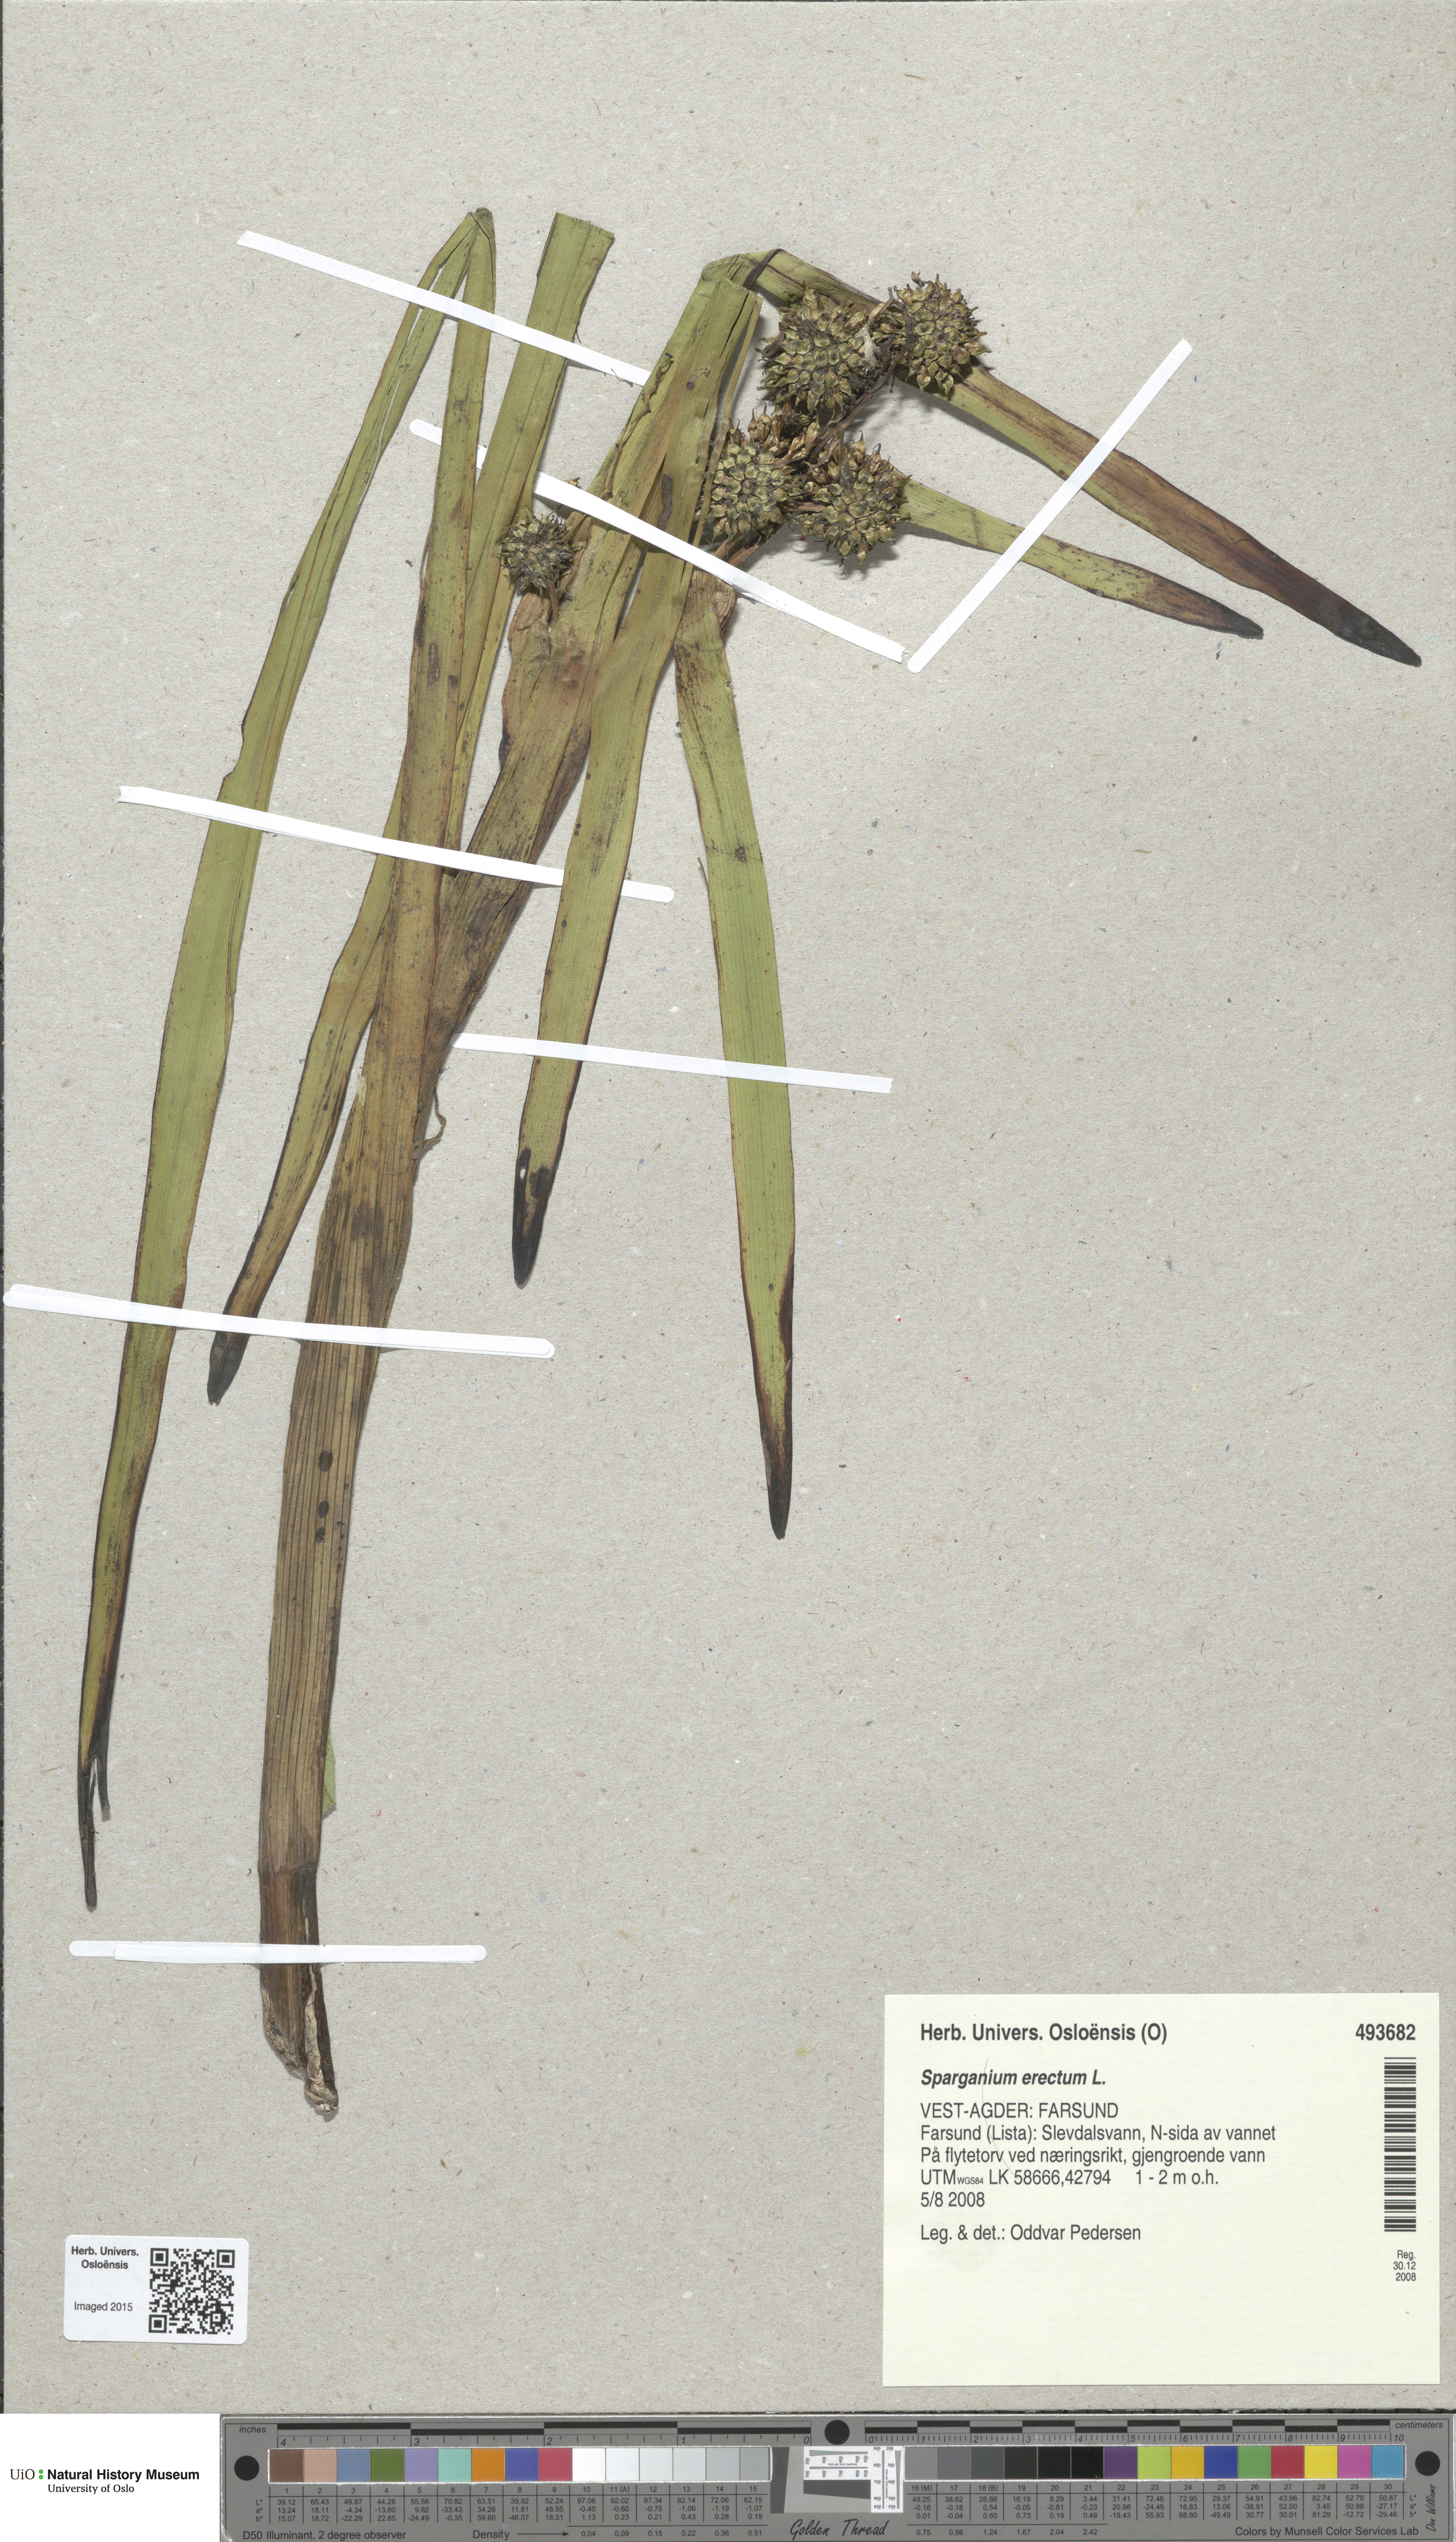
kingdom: Plantae
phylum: Tracheophyta
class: Liliopsida
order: Poales
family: Typhaceae
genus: Sparganium
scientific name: Sparganium erectum
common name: Branched bur-reed
